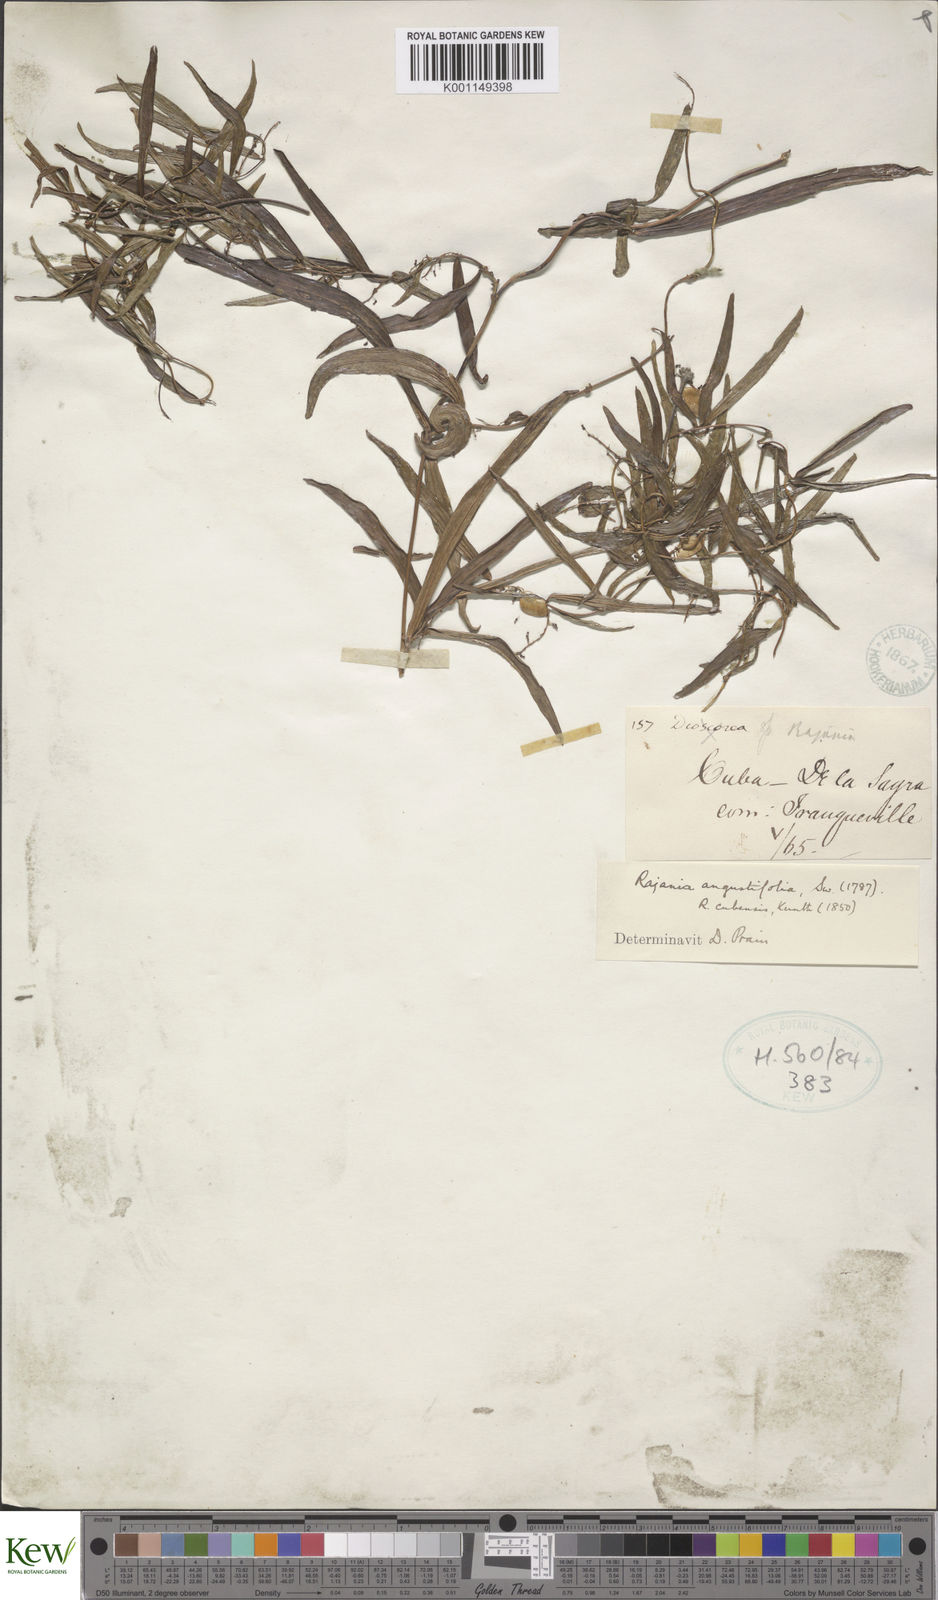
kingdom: Plantae
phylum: Tracheophyta
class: Liliopsida
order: Dioscoreales
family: Dioscoreaceae
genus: Dioscorea
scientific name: Dioscorea
